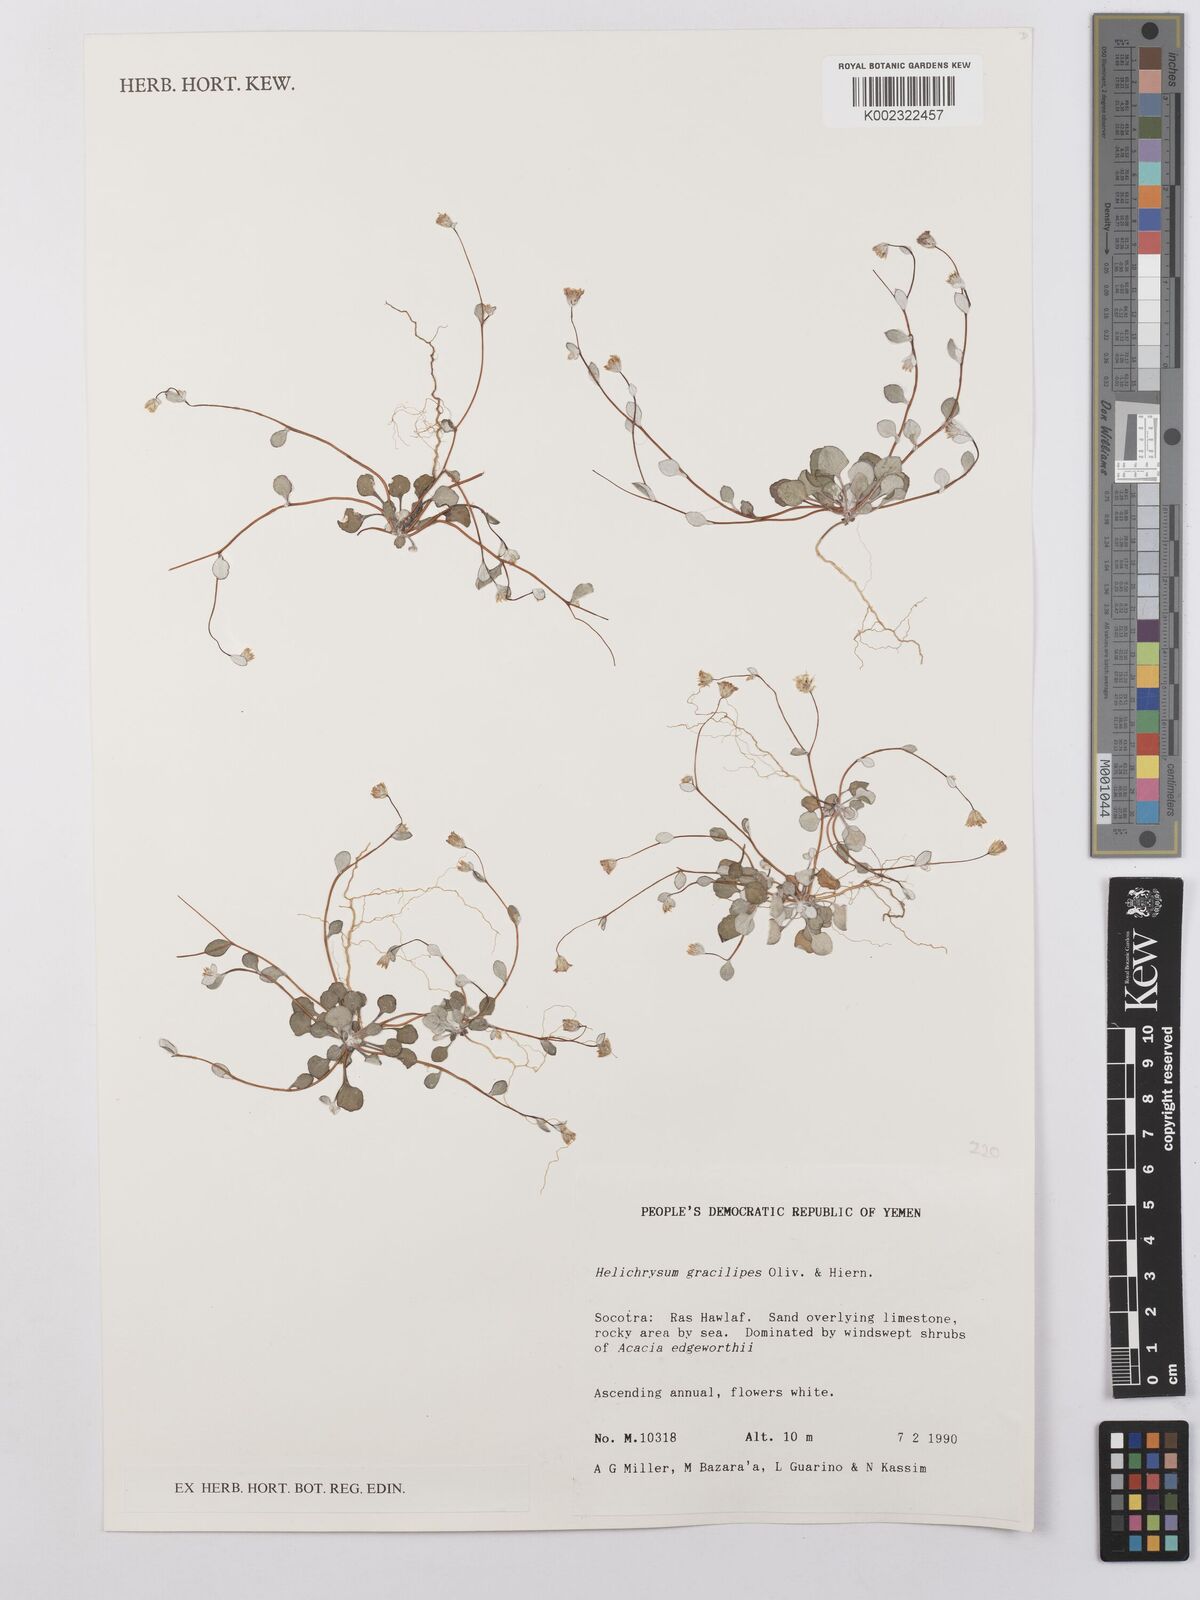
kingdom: Plantae
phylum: Tracheophyta
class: Magnoliopsida
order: Asterales
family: Asteraceae
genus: Libinhania
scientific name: Libinhania gracilipes
